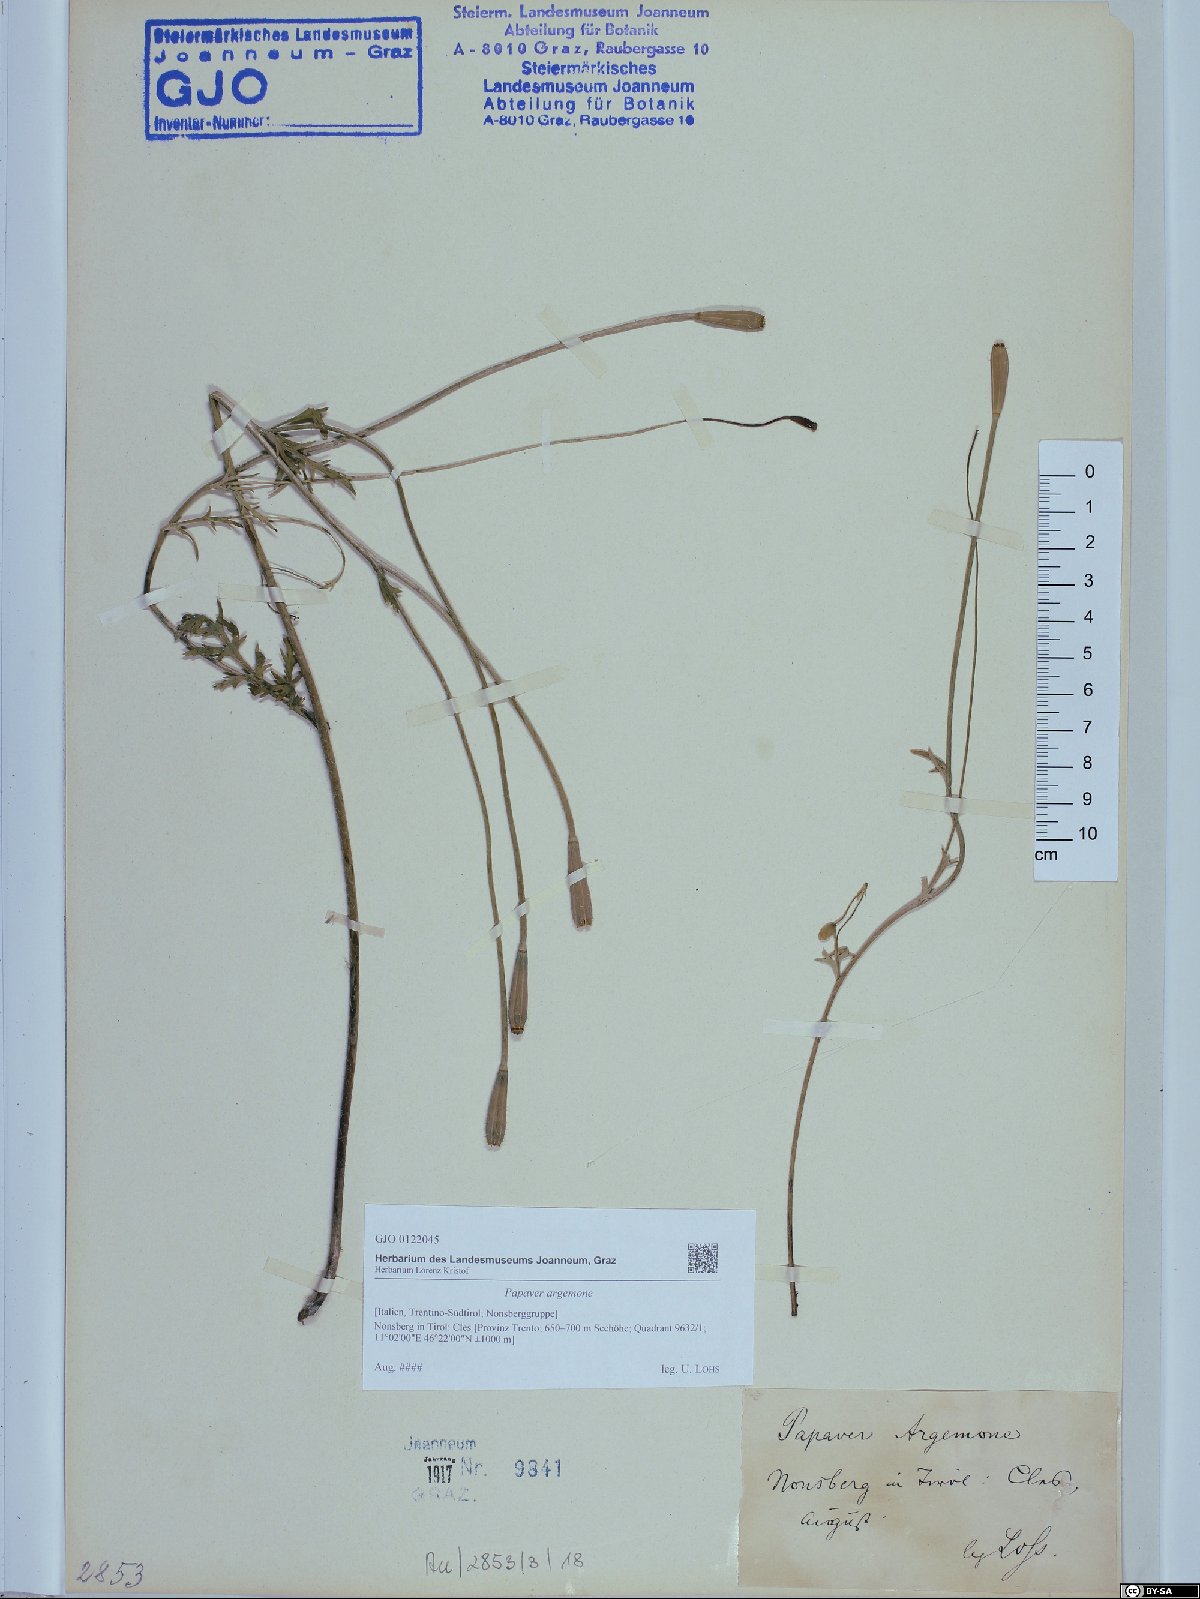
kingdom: Plantae
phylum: Tracheophyta
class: Magnoliopsida
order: Ranunculales
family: Papaveraceae
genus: Roemeria
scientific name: Roemeria argemone
